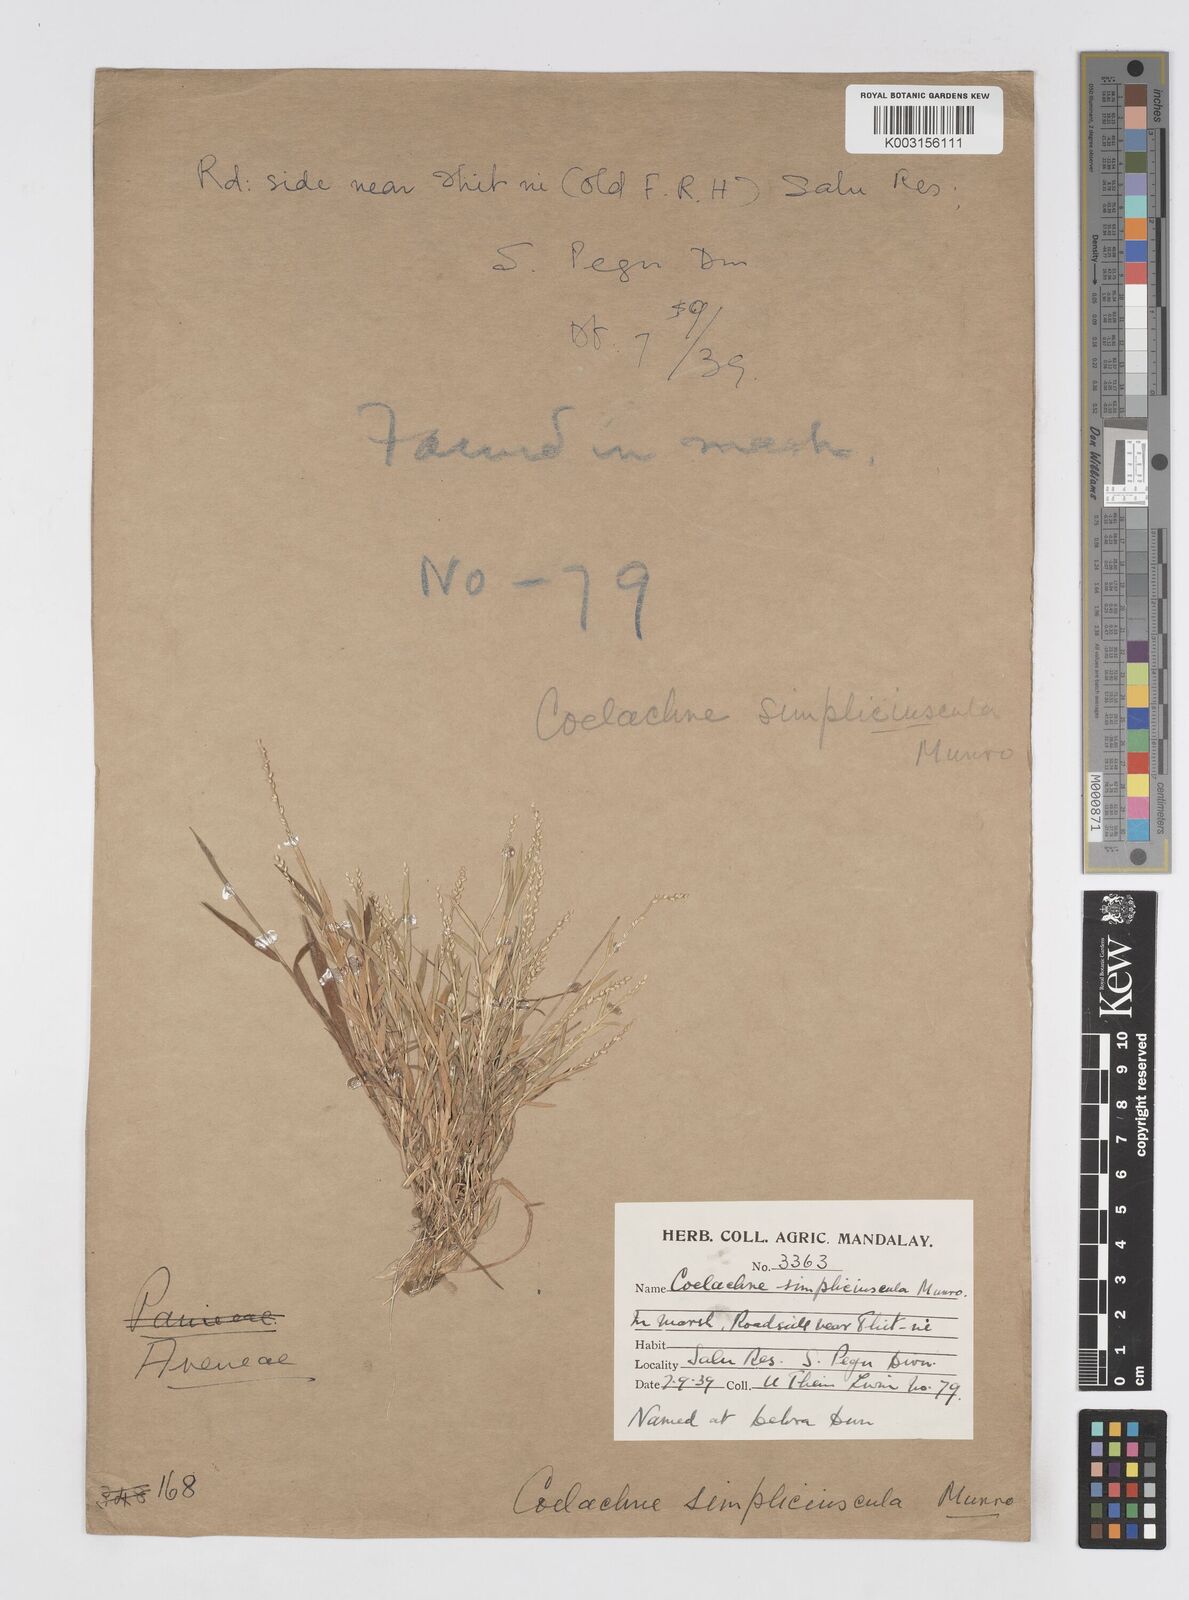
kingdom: Plantae
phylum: Tracheophyta
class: Liliopsida
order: Poales
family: Poaceae
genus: Coelachne
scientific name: Coelachne simpliciuscula
